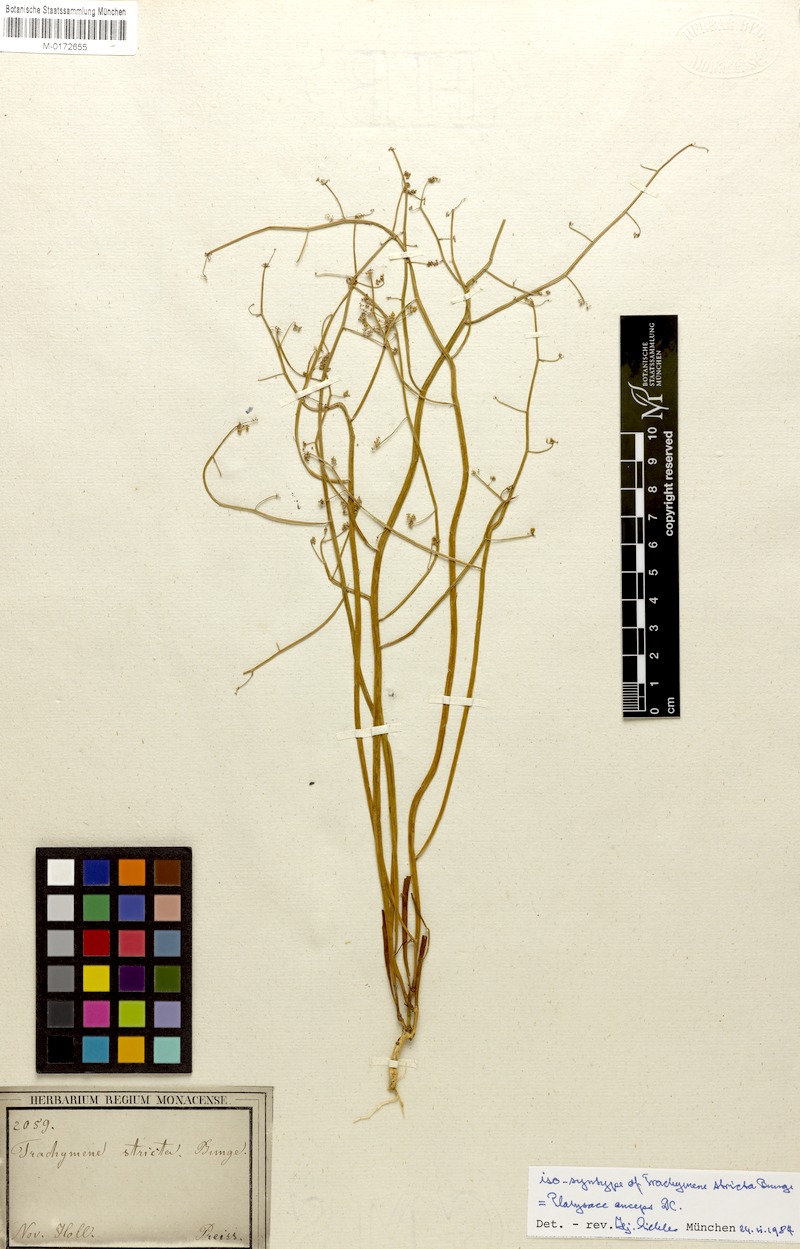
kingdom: Plantae
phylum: Tracheophyta
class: Magnoliopsida
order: Apiales
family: Apiaceae
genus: Platysace
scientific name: Platysace compressa
